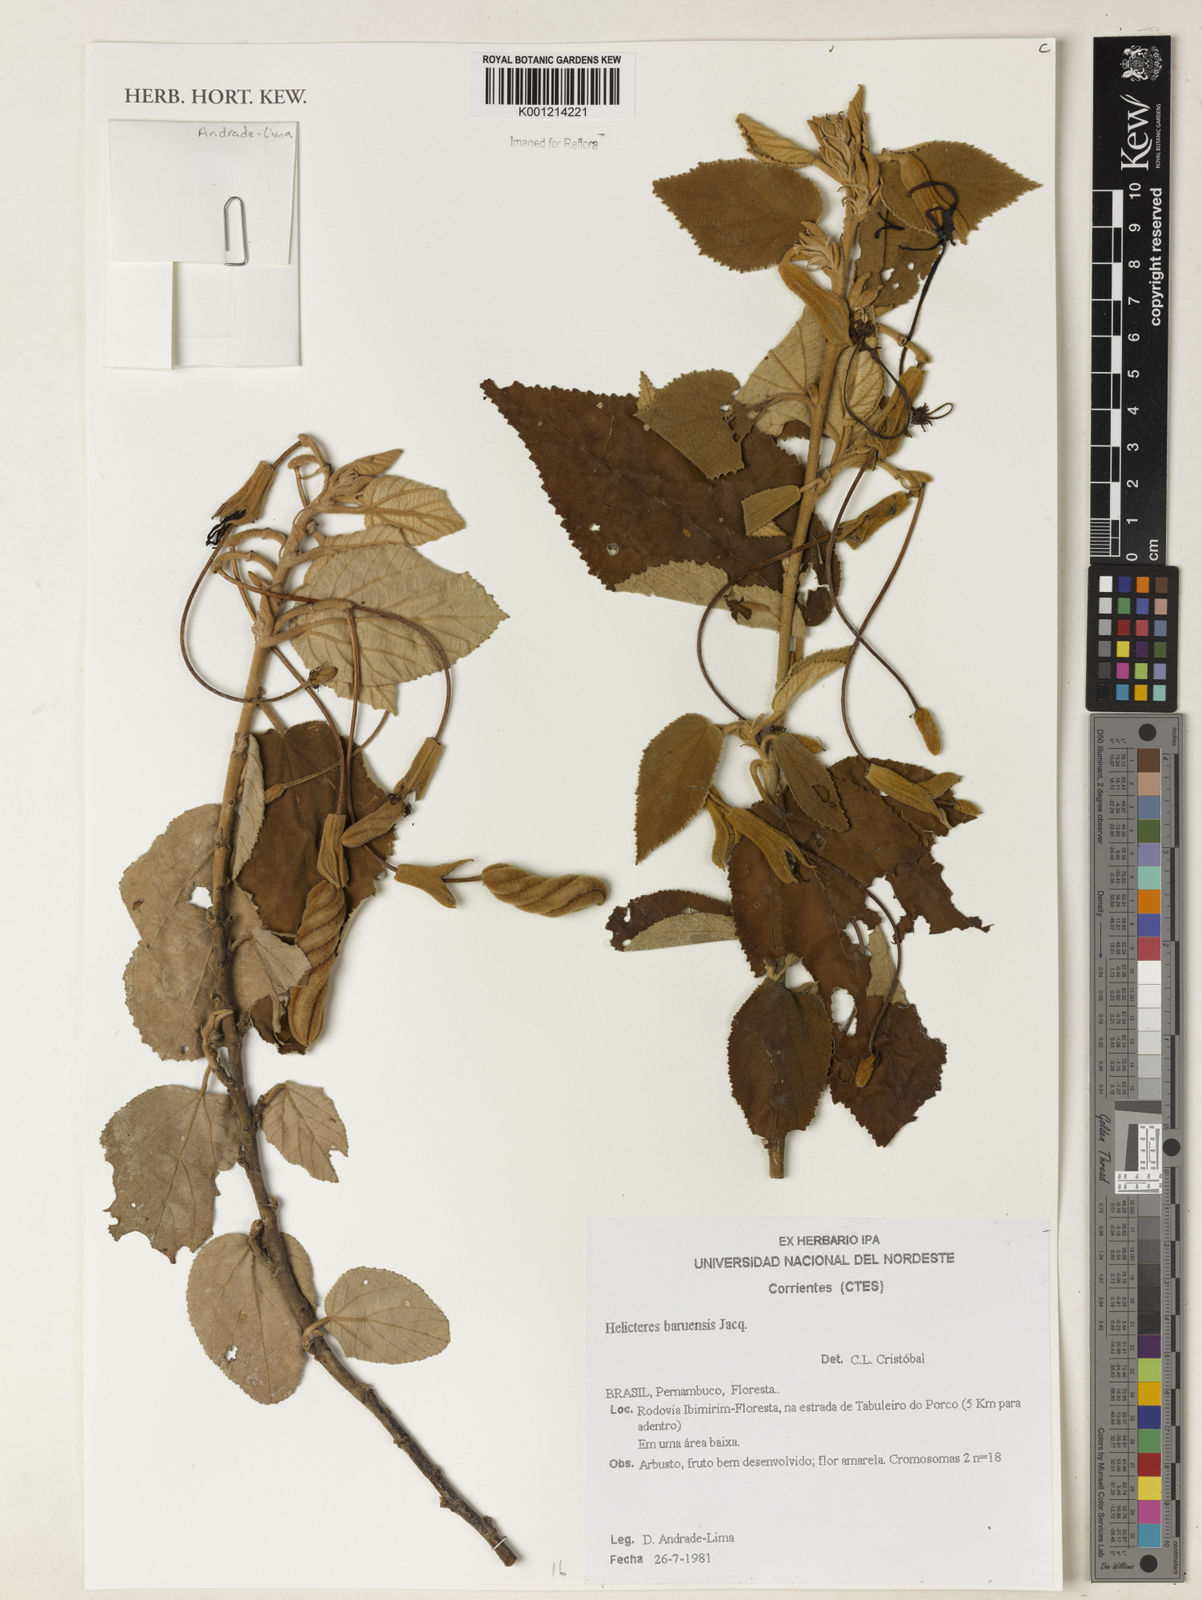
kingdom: Plantae
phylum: Tracheophyta
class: Magnoliopsida
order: Malvales
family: Malvaceae
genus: Helicteres
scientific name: Helicteres baruensis
